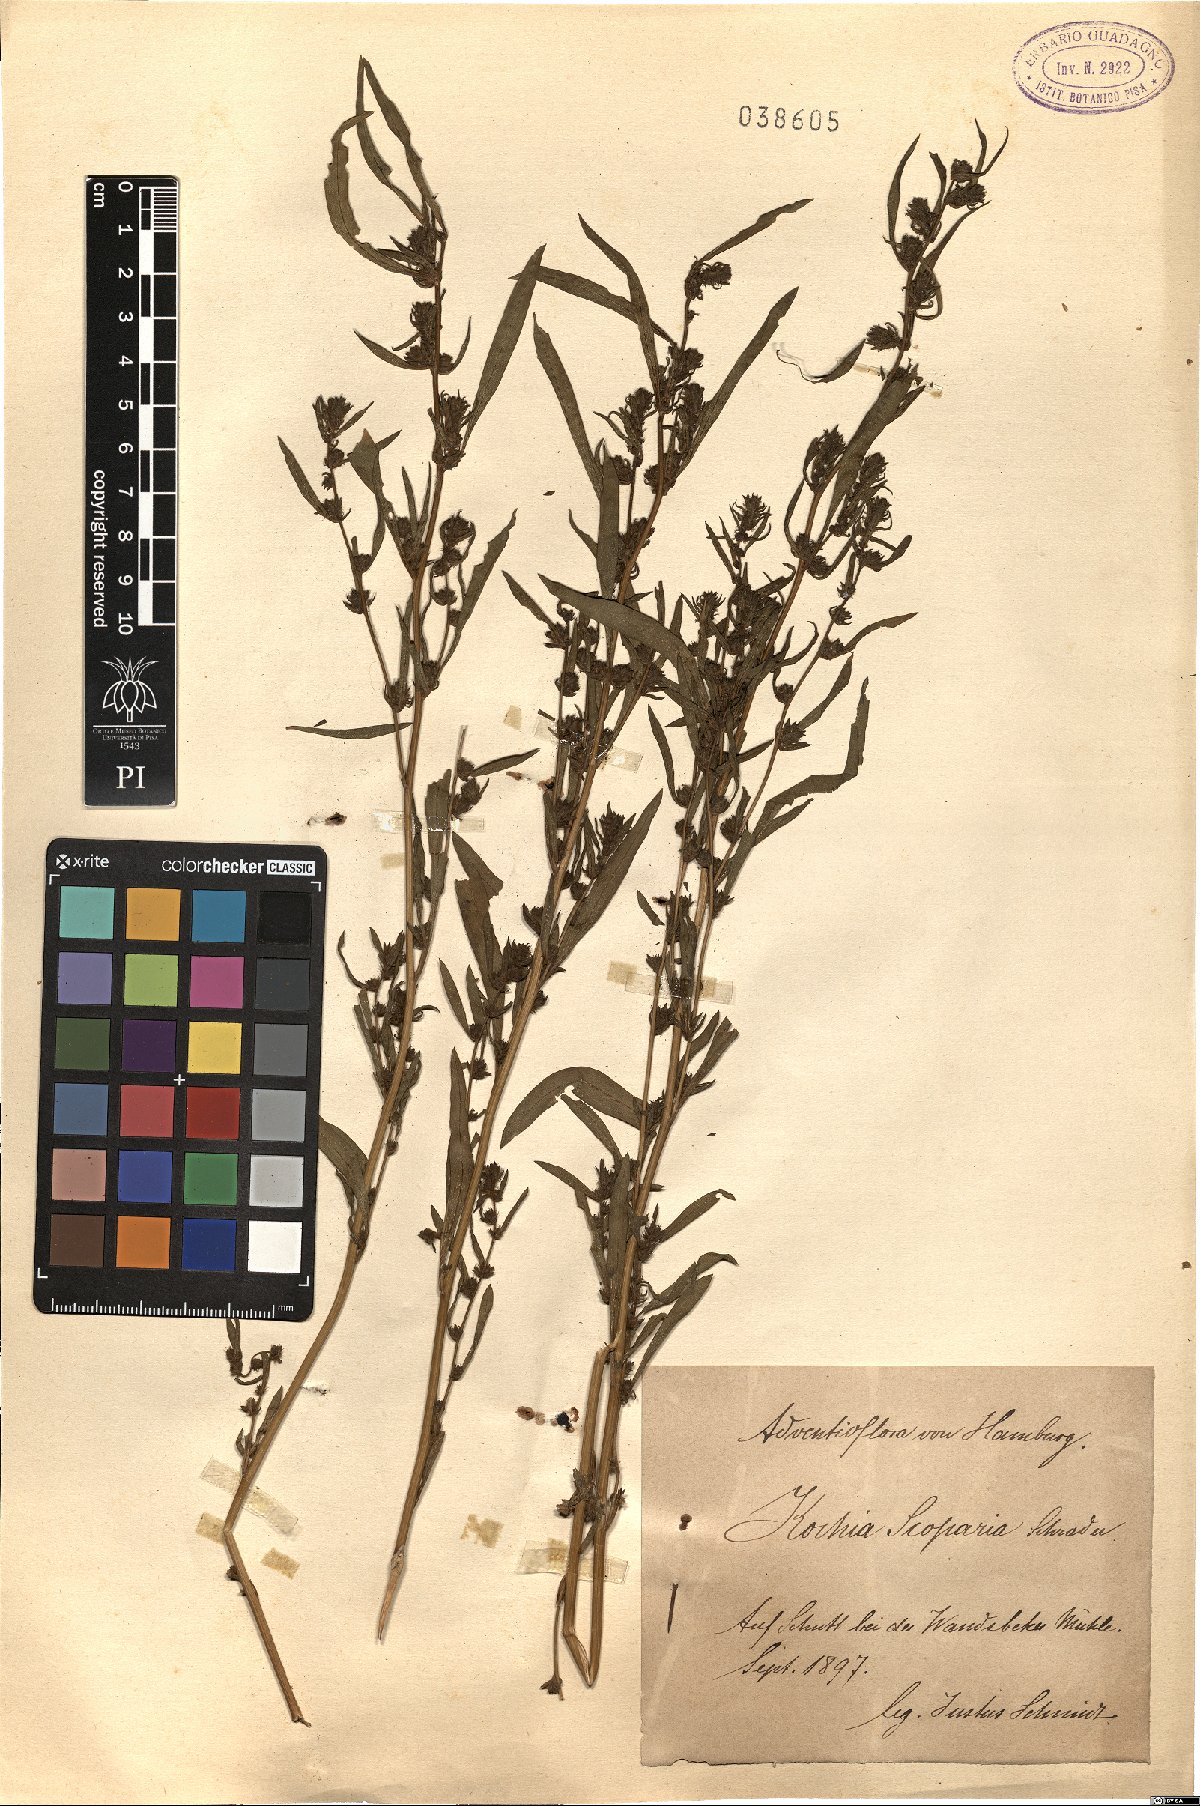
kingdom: Plantae
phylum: Tracheophyta
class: Magnoliopsida
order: Caryophyllales
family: Amaranthaceae
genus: Bassia
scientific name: Bassia scoparia
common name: Belvedere
